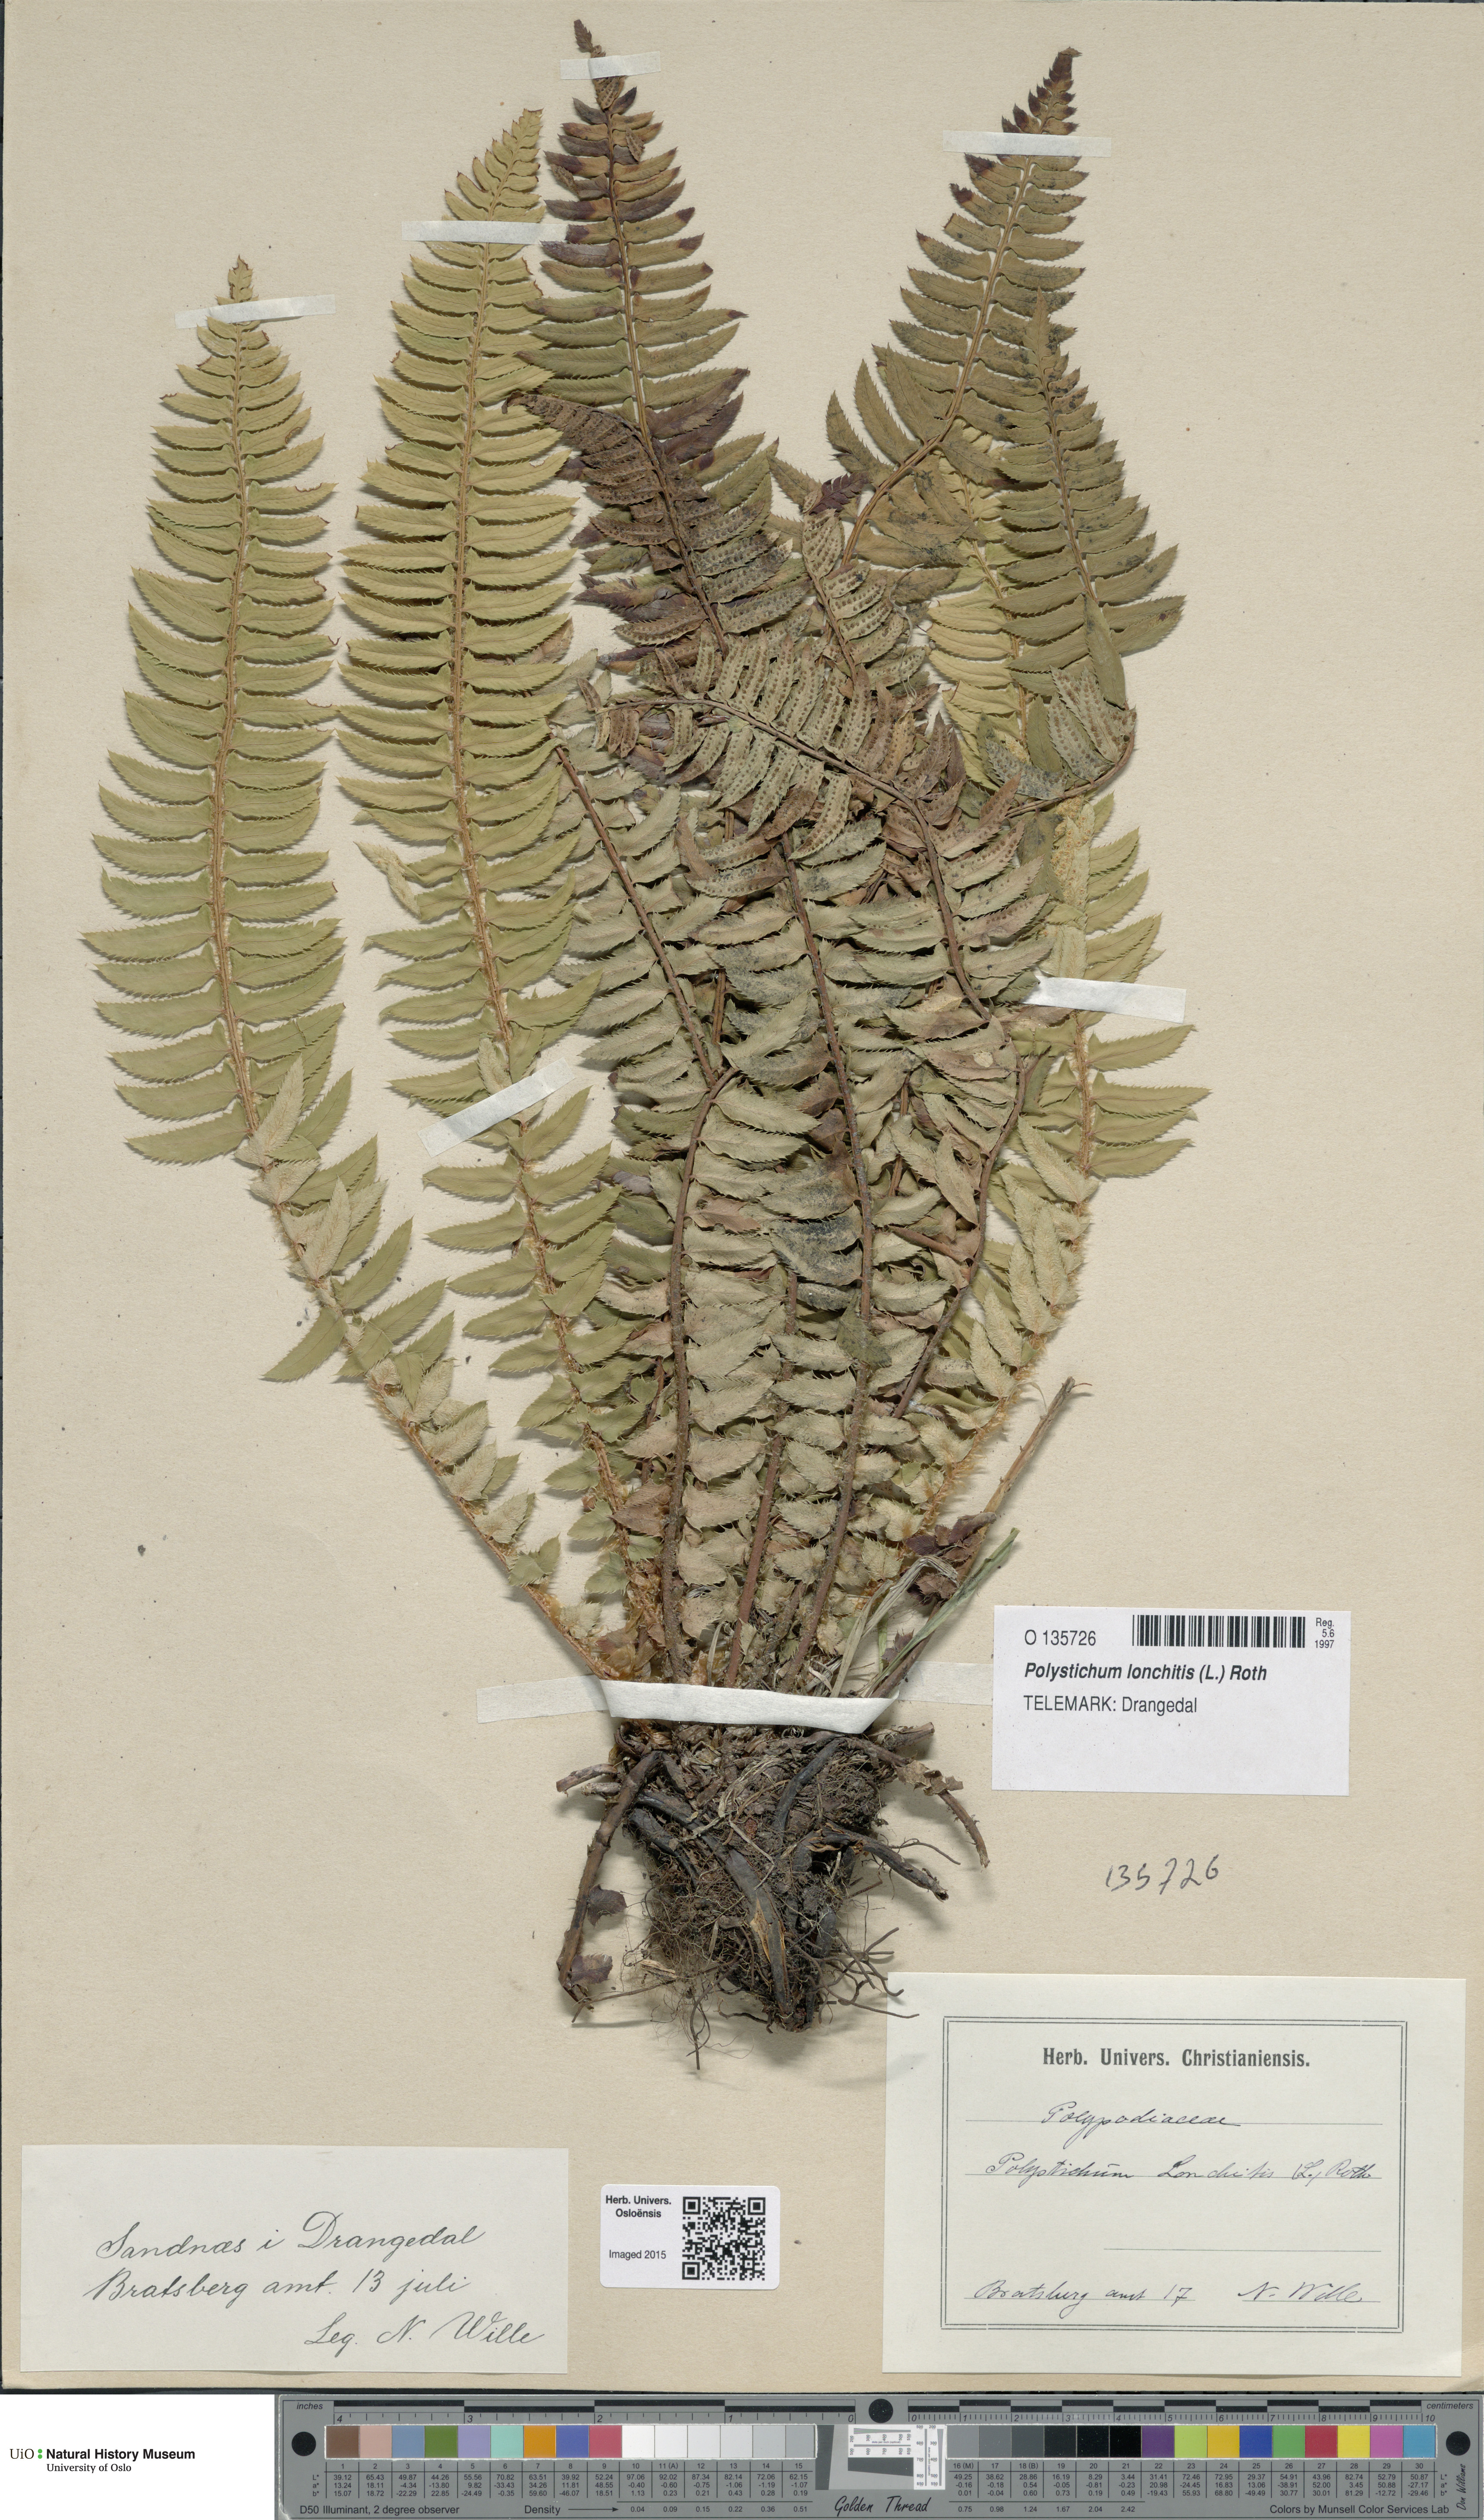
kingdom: Plantae
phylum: Tracheophyta
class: Polypodiopsida
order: Polypodiales
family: Dryopteridaceae
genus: Polystichum
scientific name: Polystichum lonchitis
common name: Holly fern
